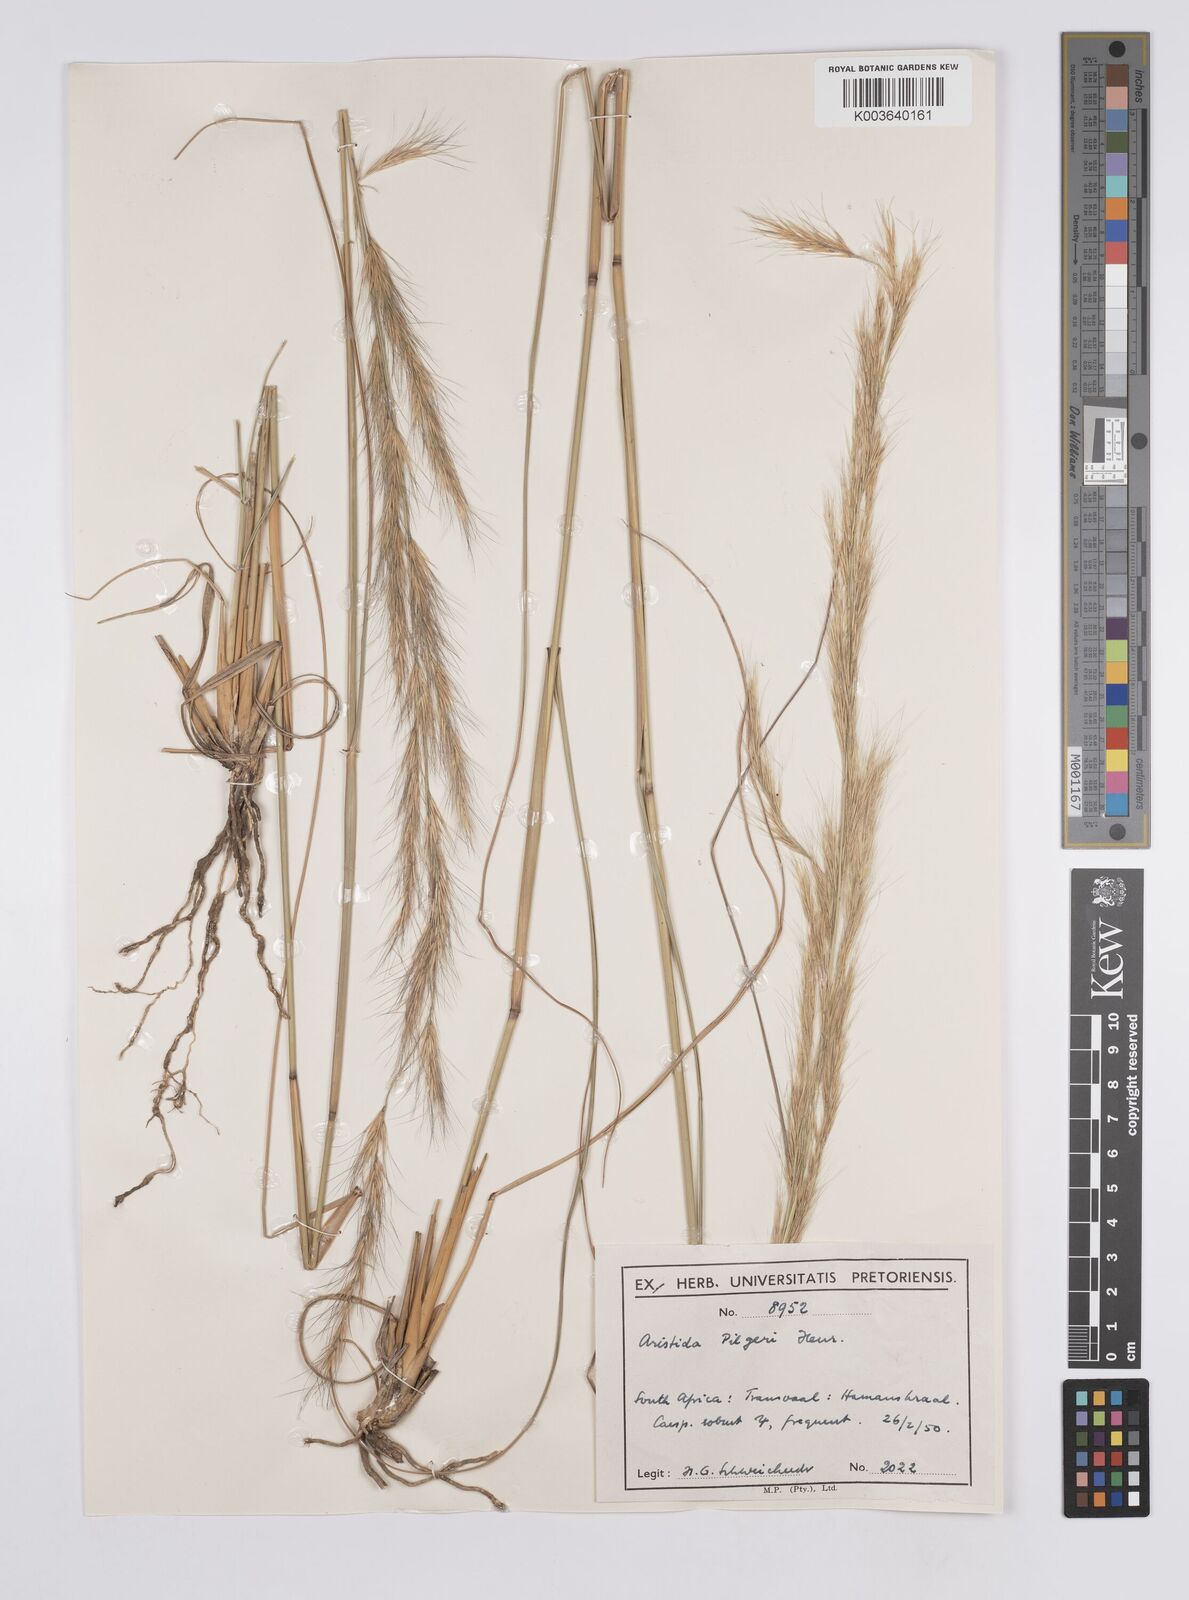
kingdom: Plantae
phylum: Tracheophyta
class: Liliopsida
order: Poales
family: Poaceae
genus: Aristida
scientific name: Aristida pilgeri
